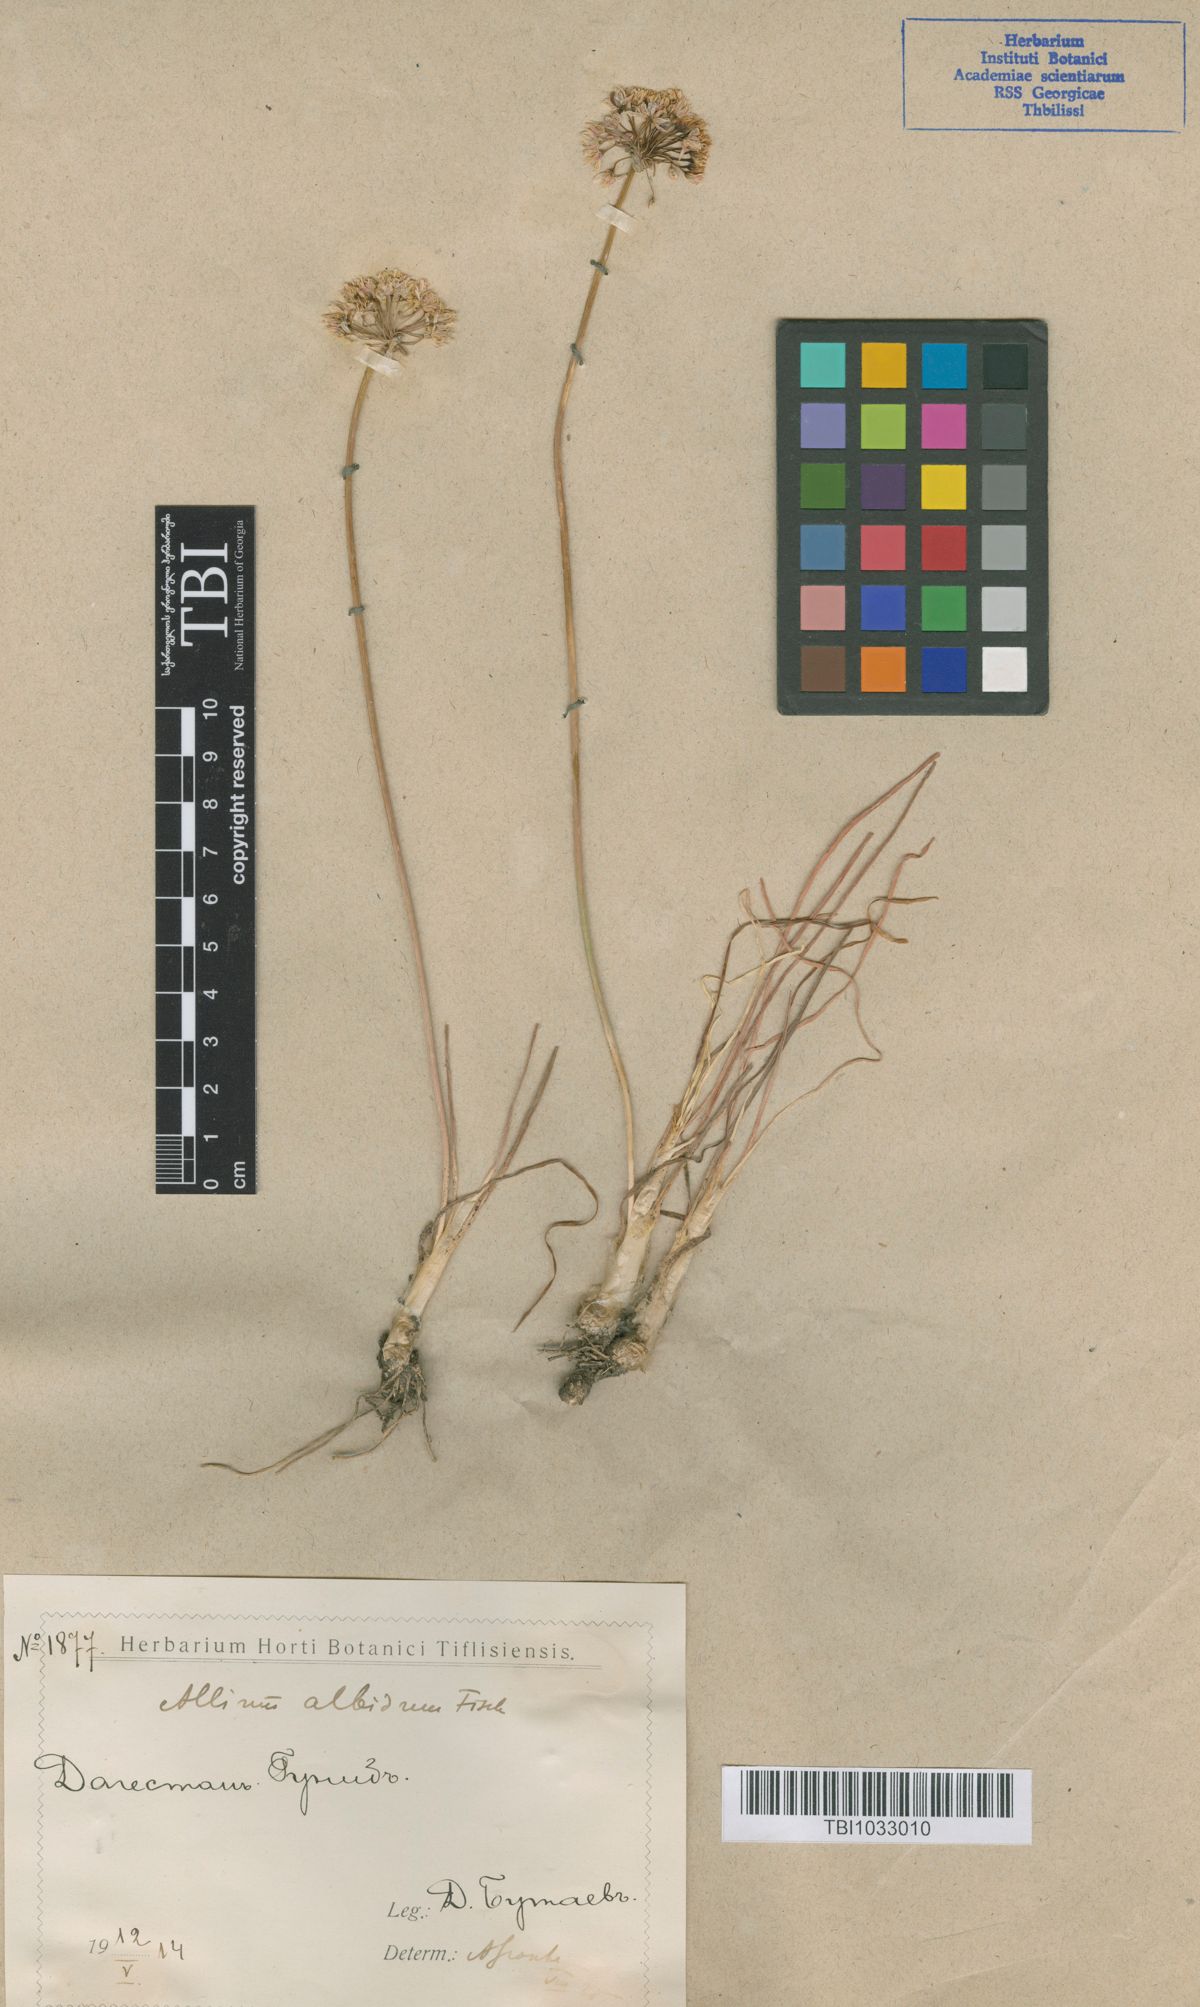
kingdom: Plantae
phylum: Tracheophyta
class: Liliopsida
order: Asparagales
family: Amaryllidaceae
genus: Allium
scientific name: Allium denudatum
